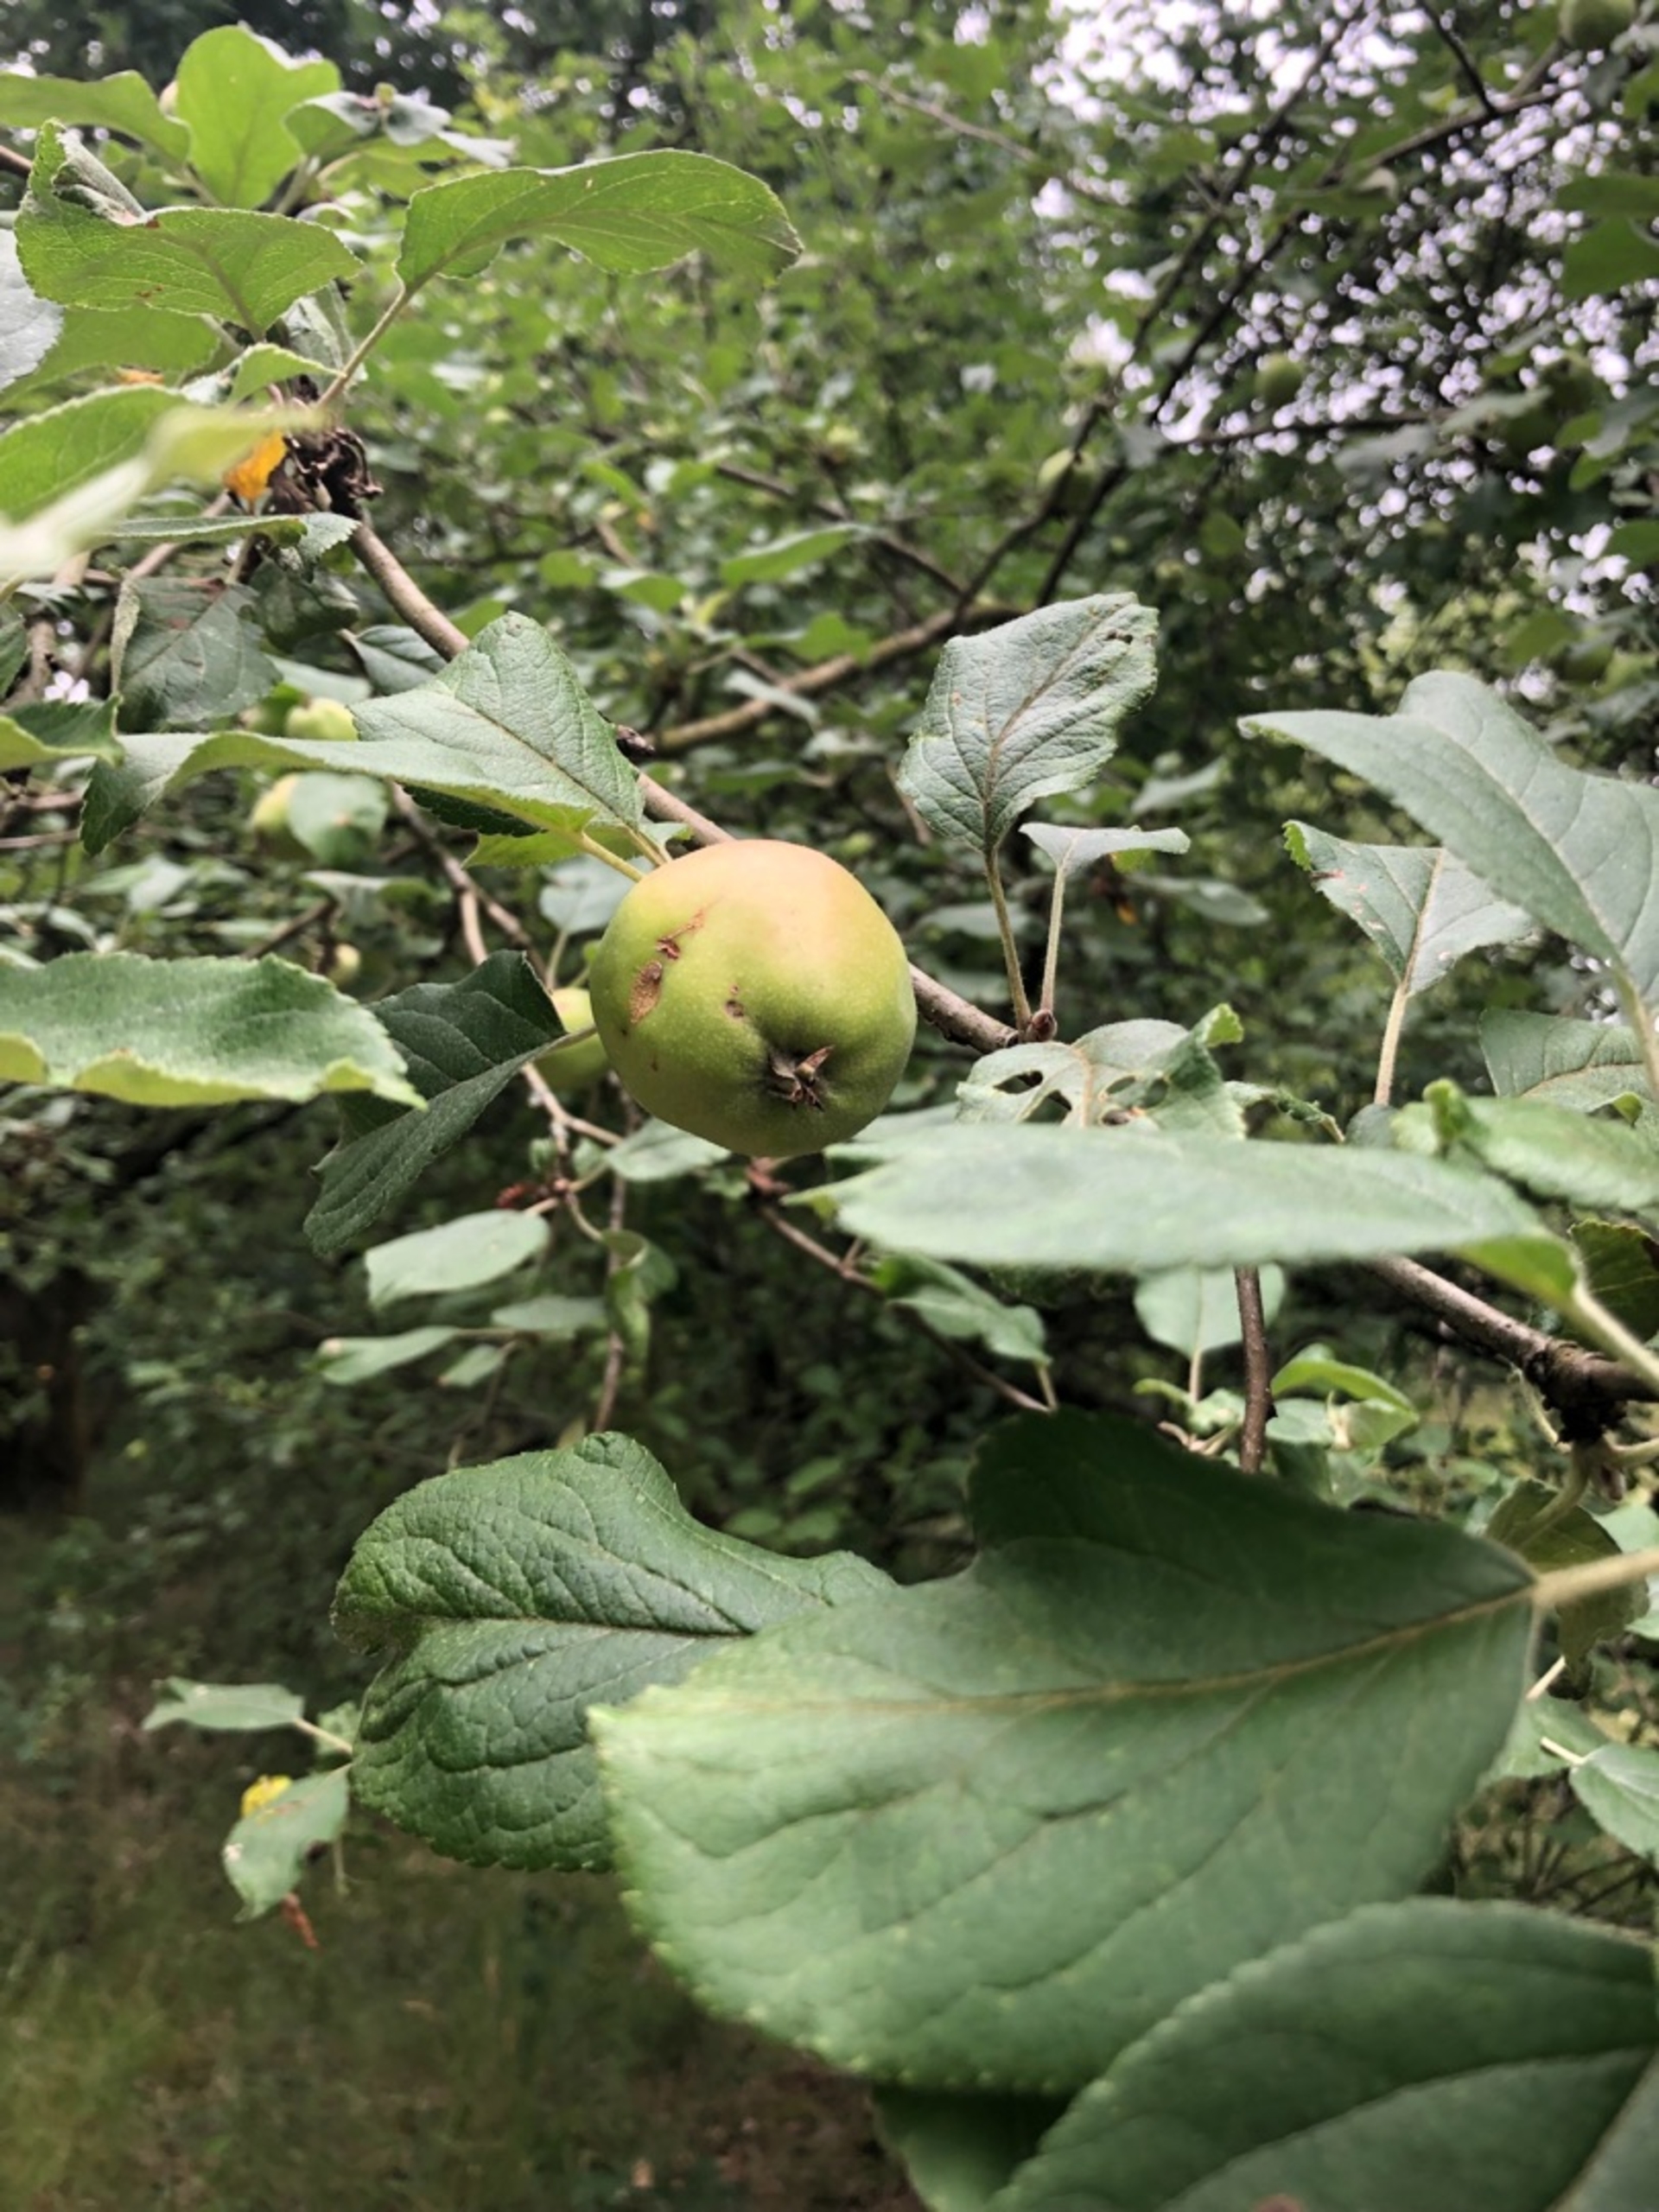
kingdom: Plantae
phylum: Tracheophyta
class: Magnoliopsida
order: Rosales
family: Rosaceae
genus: Malus
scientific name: Malus domestica
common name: Sød-æble
